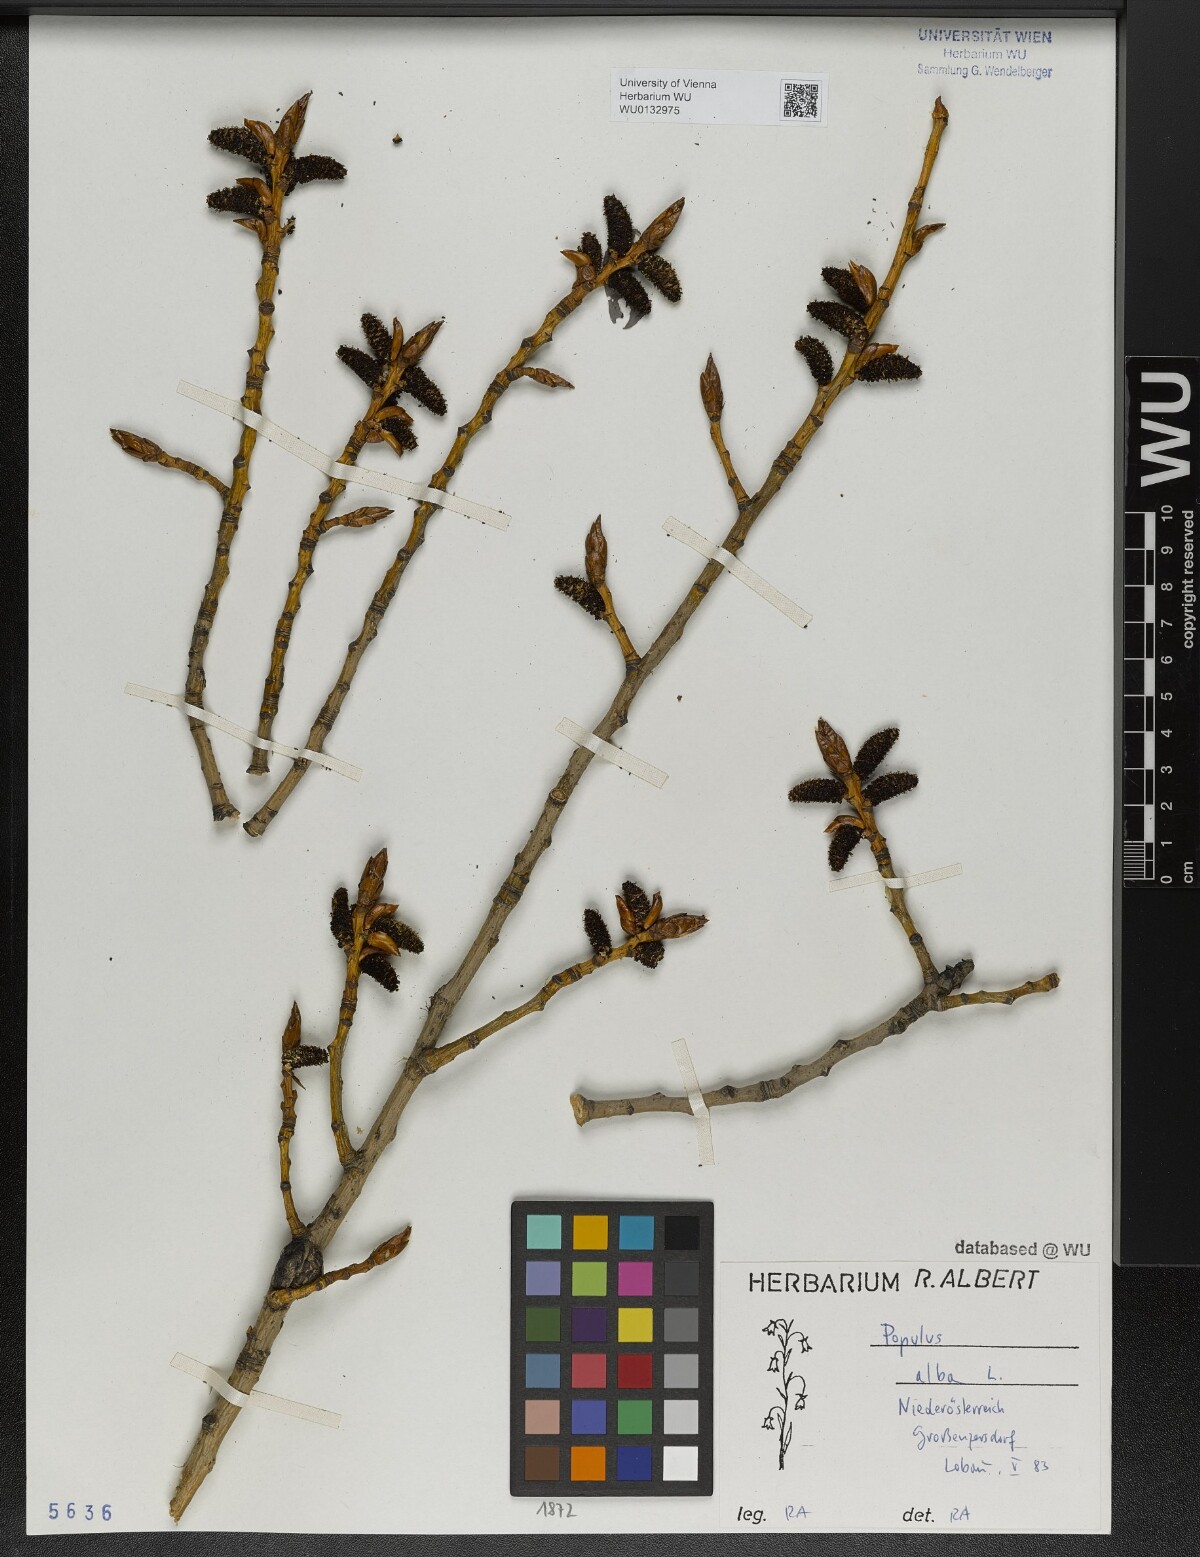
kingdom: Plantae
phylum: Tracheophyta
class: Magnoliopsida
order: Malpighiales
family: Salicaceae
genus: Populus
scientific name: Populus alba
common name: White poplar
